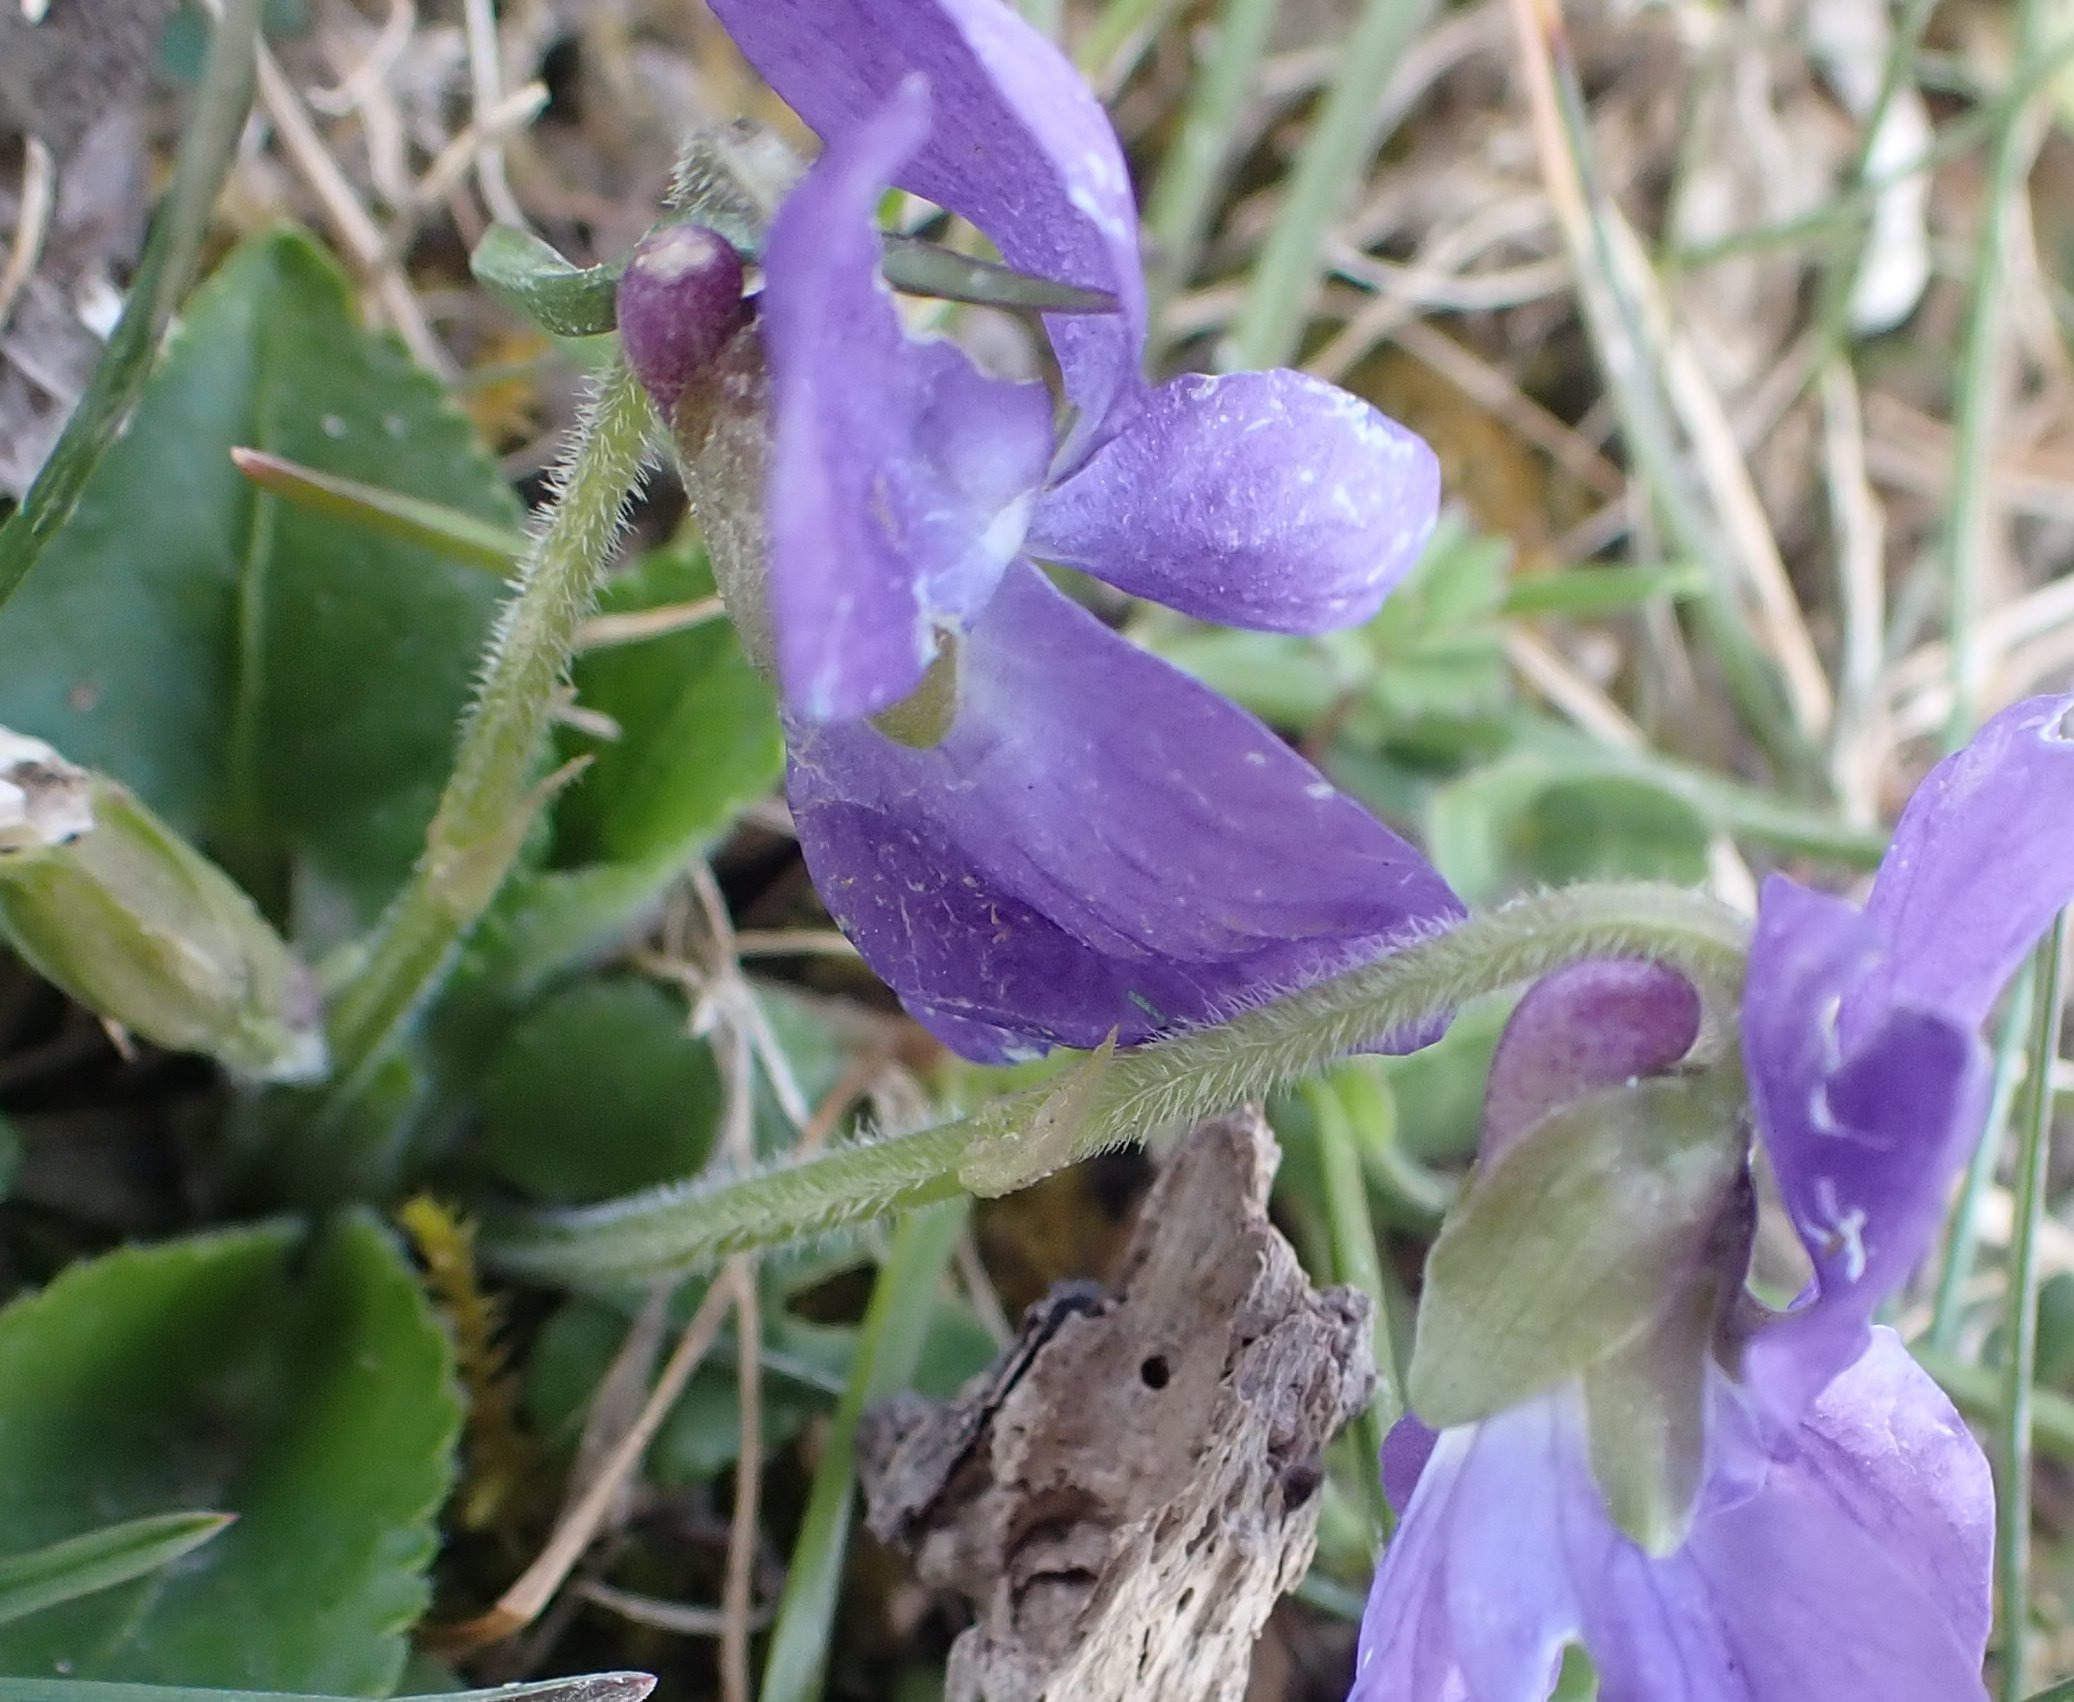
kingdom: Plantae
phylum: Tracheophyta
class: Magnoliopsida
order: Malpighiales
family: Violaceae
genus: Viola
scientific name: Viola hirta
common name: Håret viol
